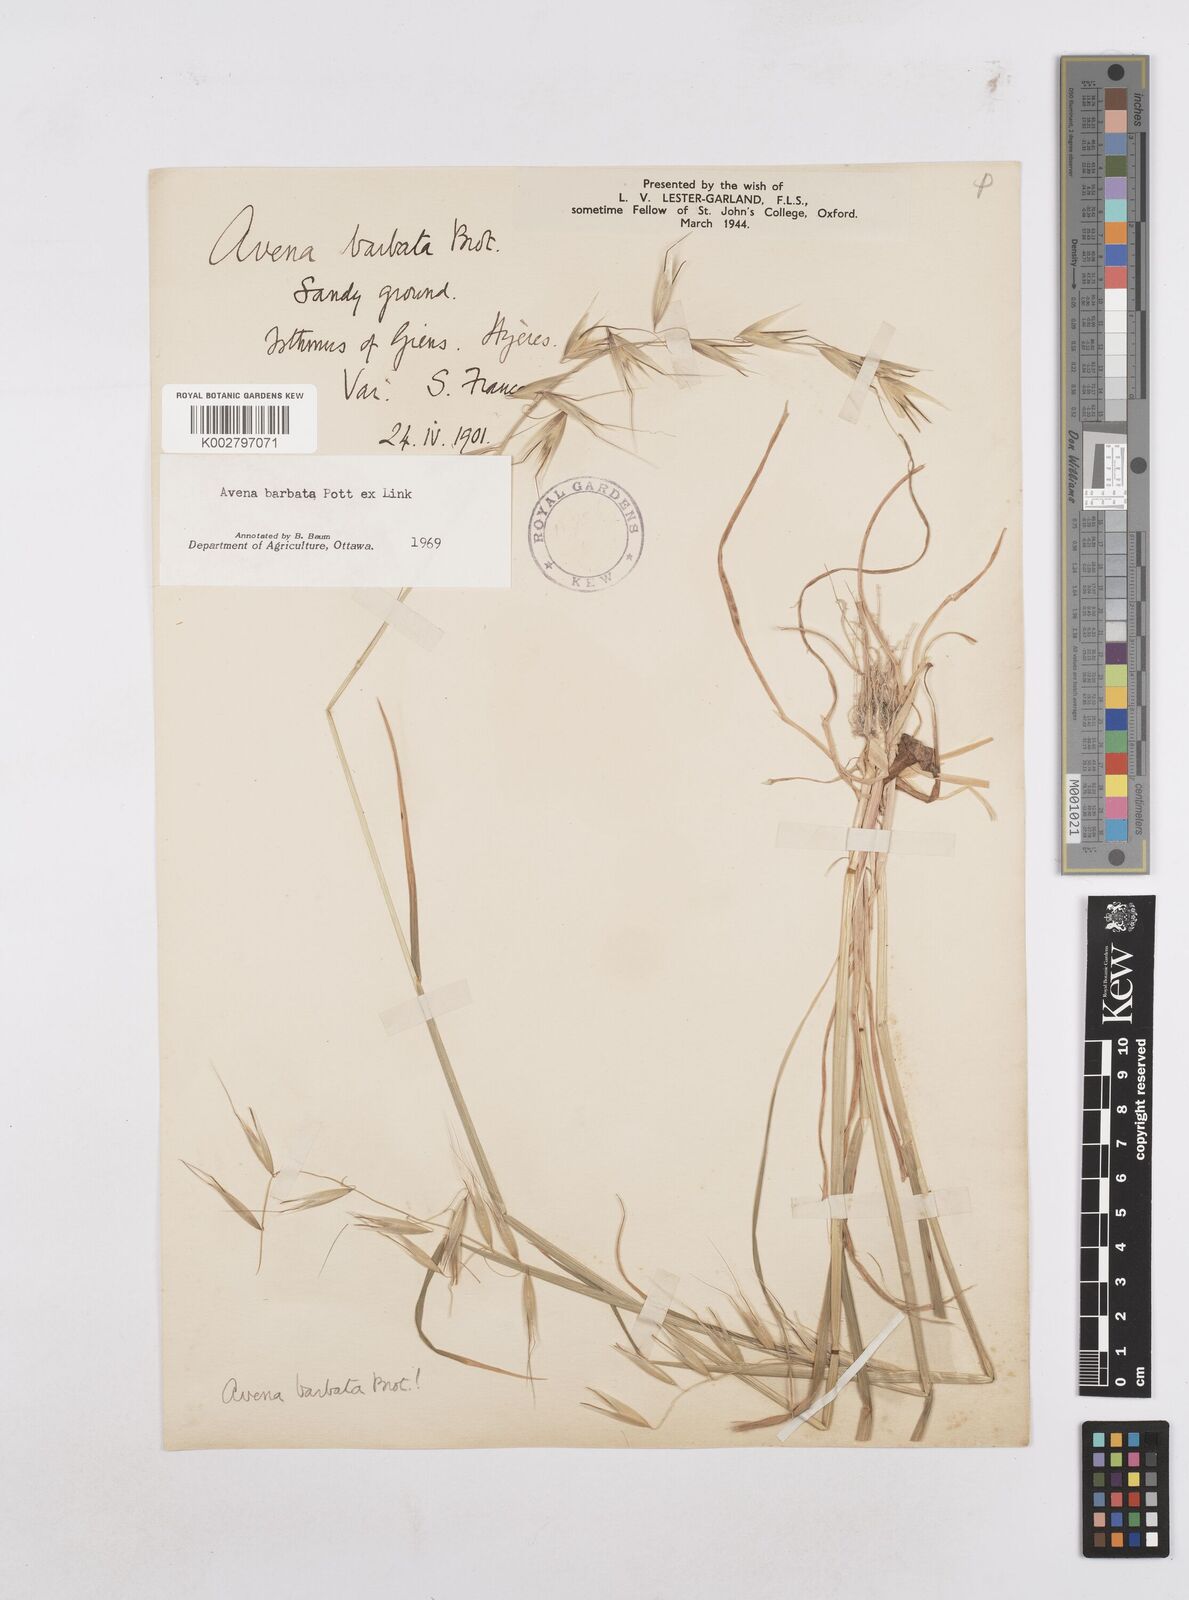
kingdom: Plantae
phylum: Tracheophyta
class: Liliopsida
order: Poales
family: Poaceae
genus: Avena
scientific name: Avena
